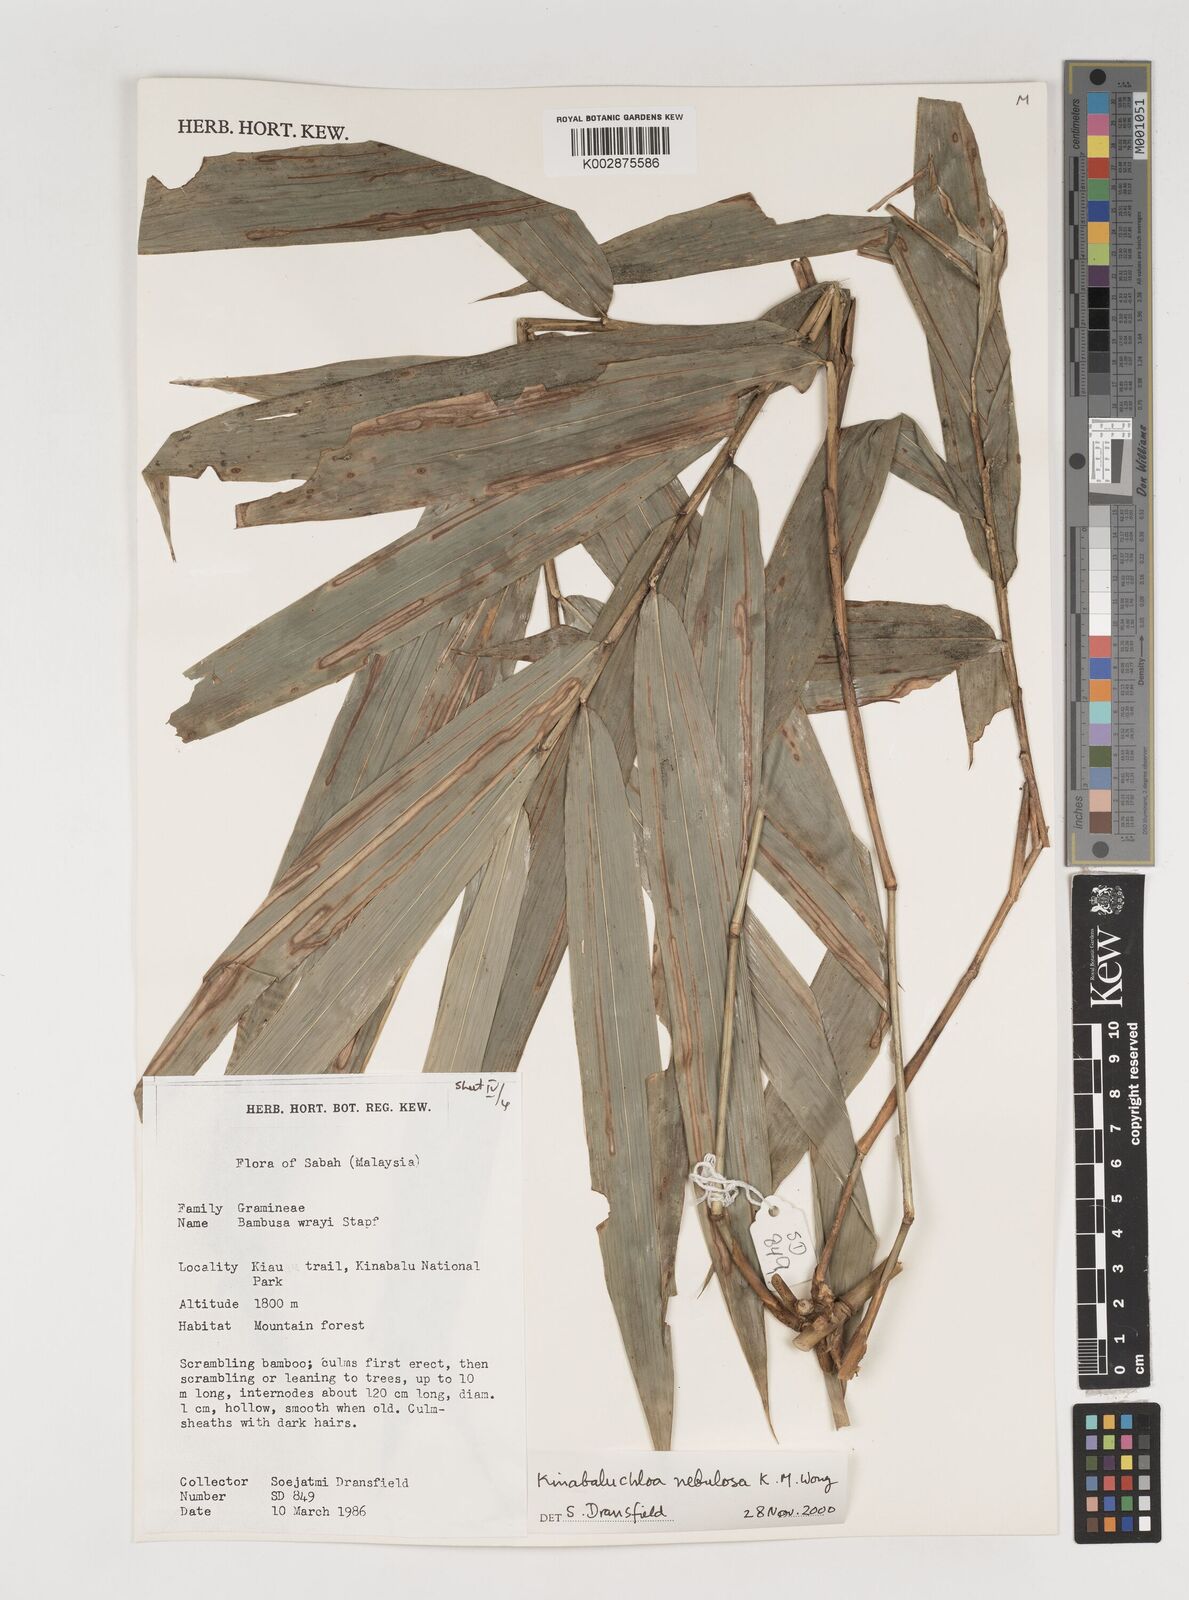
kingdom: Plantae
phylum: Tracheophyta
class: Liliopsida
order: Poales
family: Poaceae
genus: Kinabaluchloa
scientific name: Kinabaluchloa wrayi
